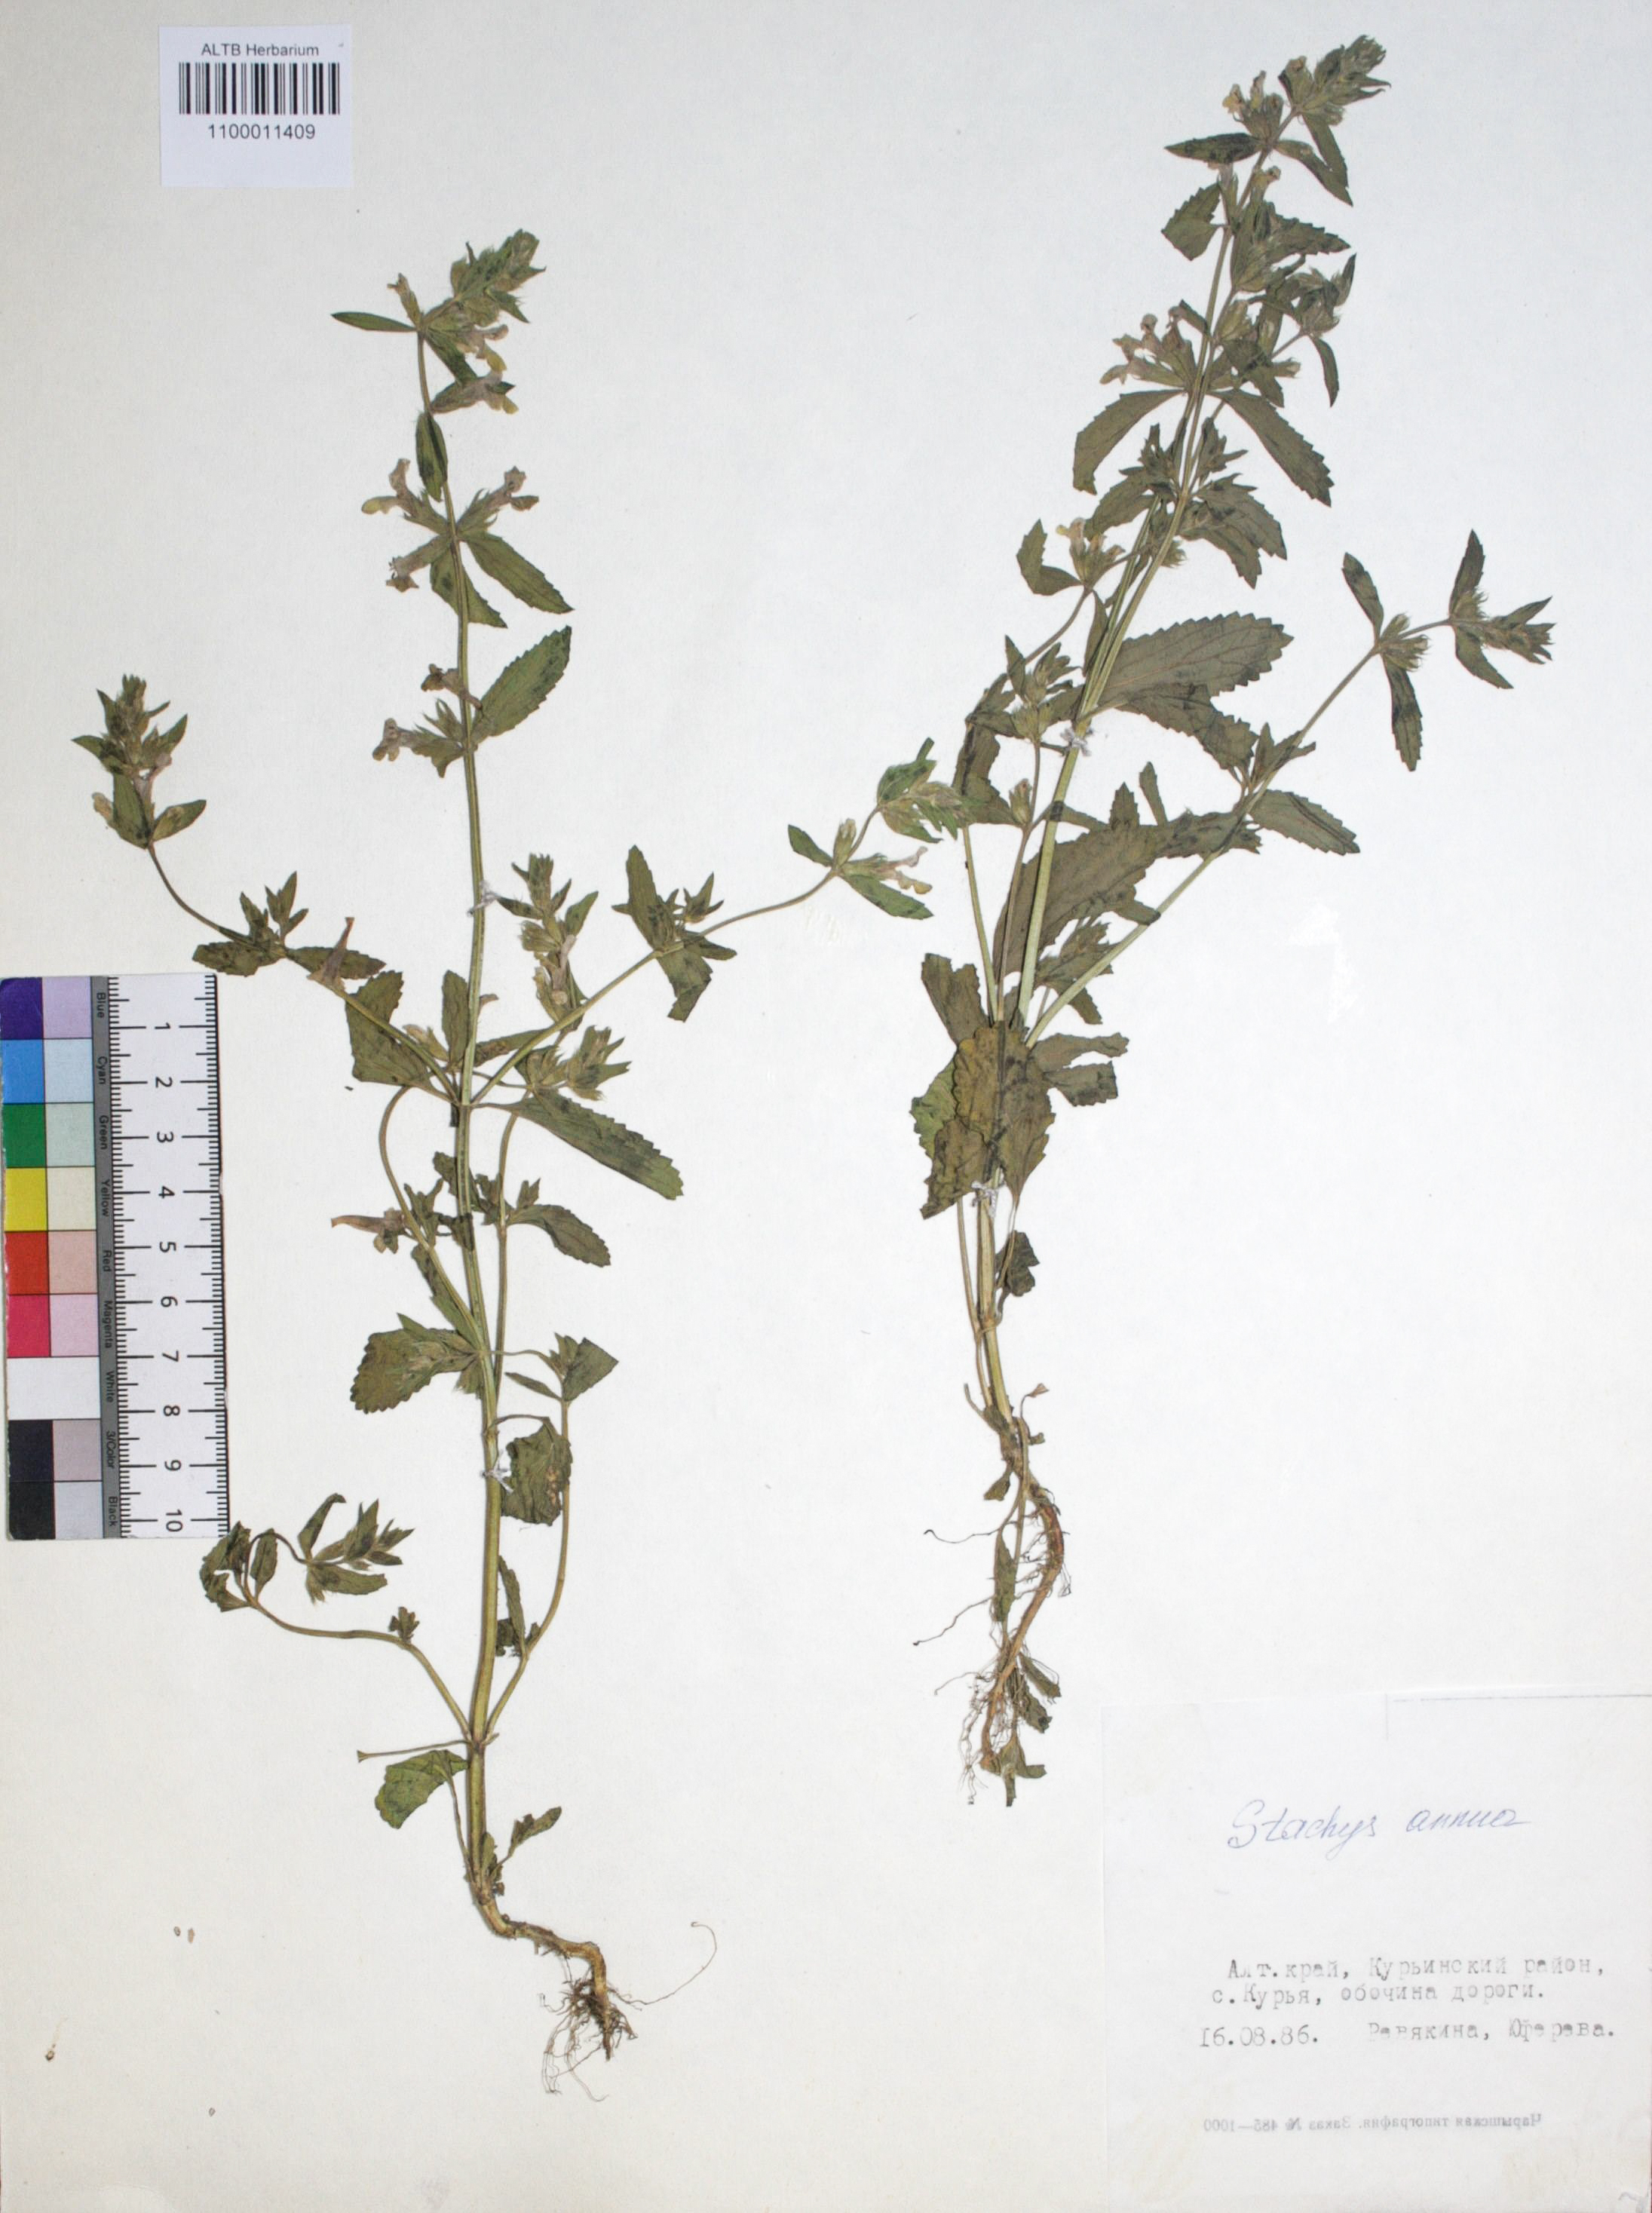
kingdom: Plantae
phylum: Tracheophyta
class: Magnoliopsida
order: Lamiales
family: Lamiaceae
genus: Stachys
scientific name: Stachys annua
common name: Annual yellow-woundwort
